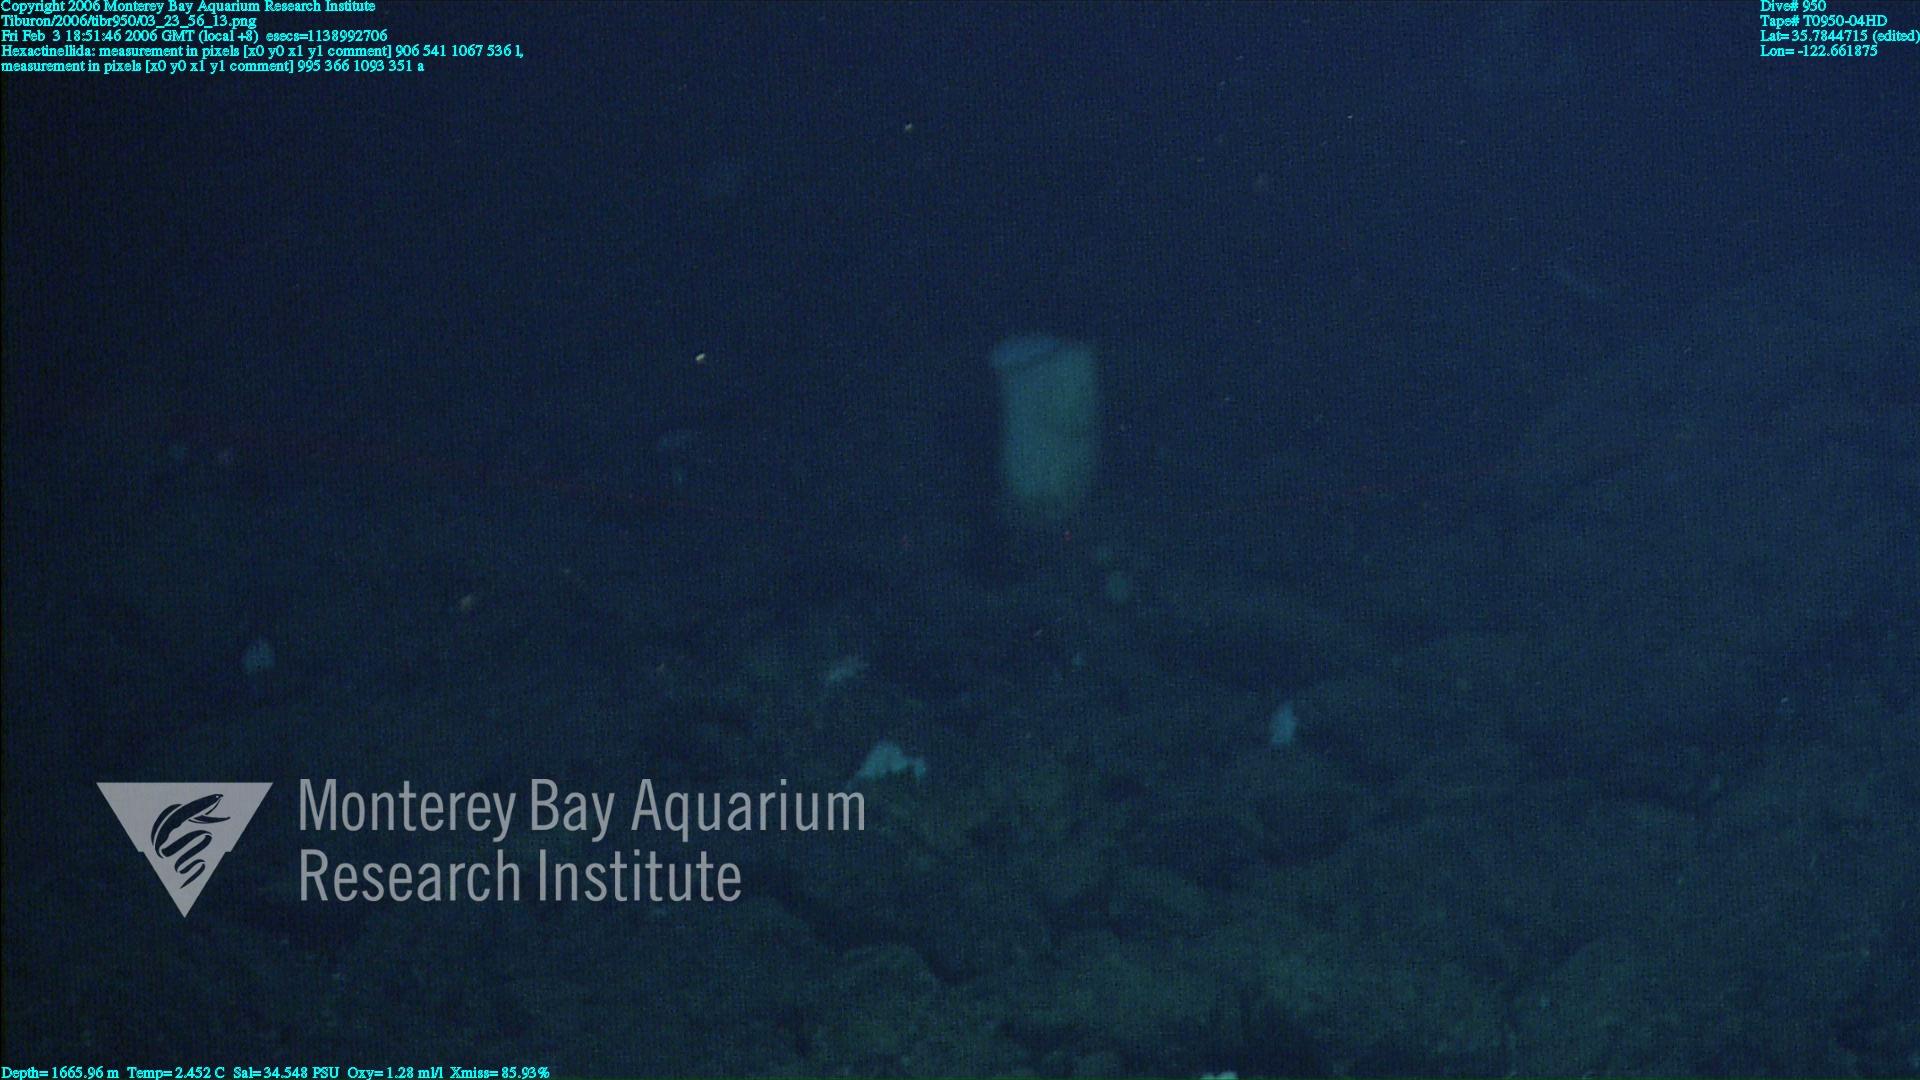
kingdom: Animalia
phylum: Porifera
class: Hexactinellida
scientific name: Hexactinellida
